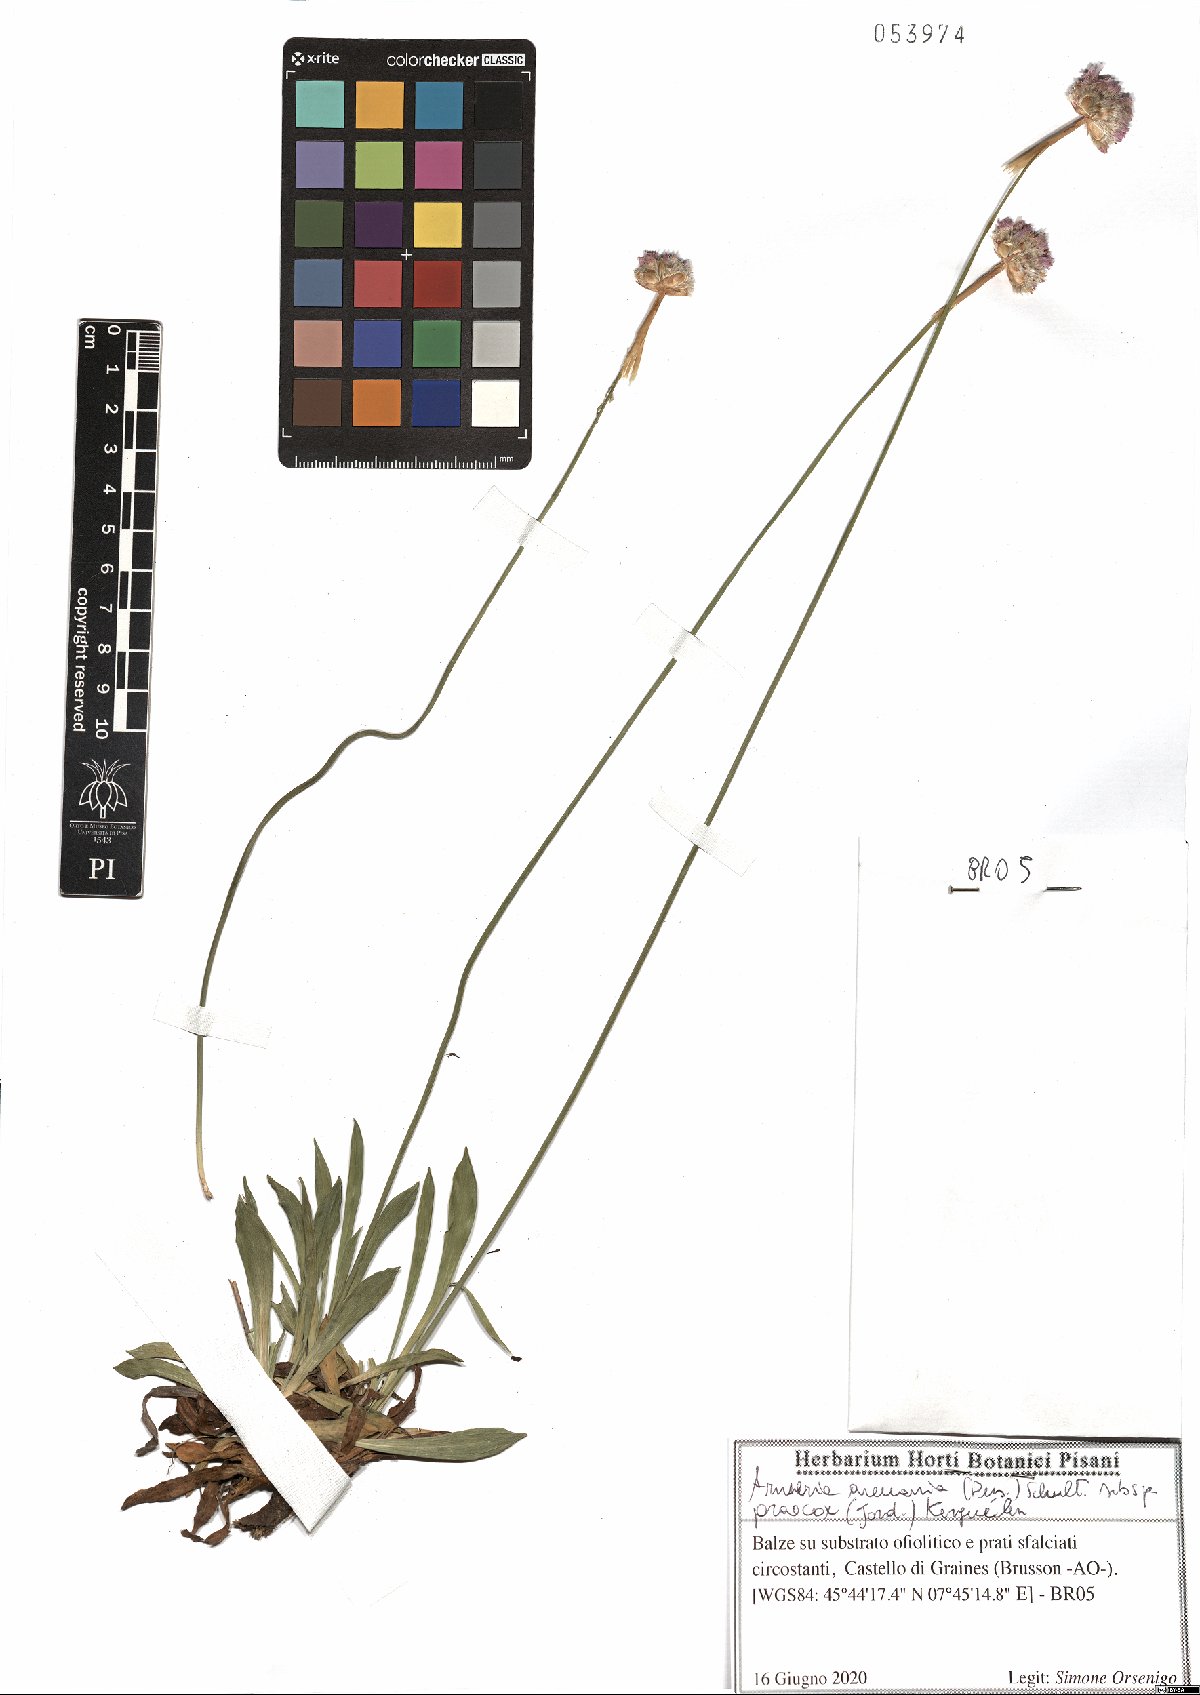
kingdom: Plantae
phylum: Tracheophyta
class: Magnoliopsida
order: Caryophyllales
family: Plumbaginaceae
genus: Armeria
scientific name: Armeria arenaria
